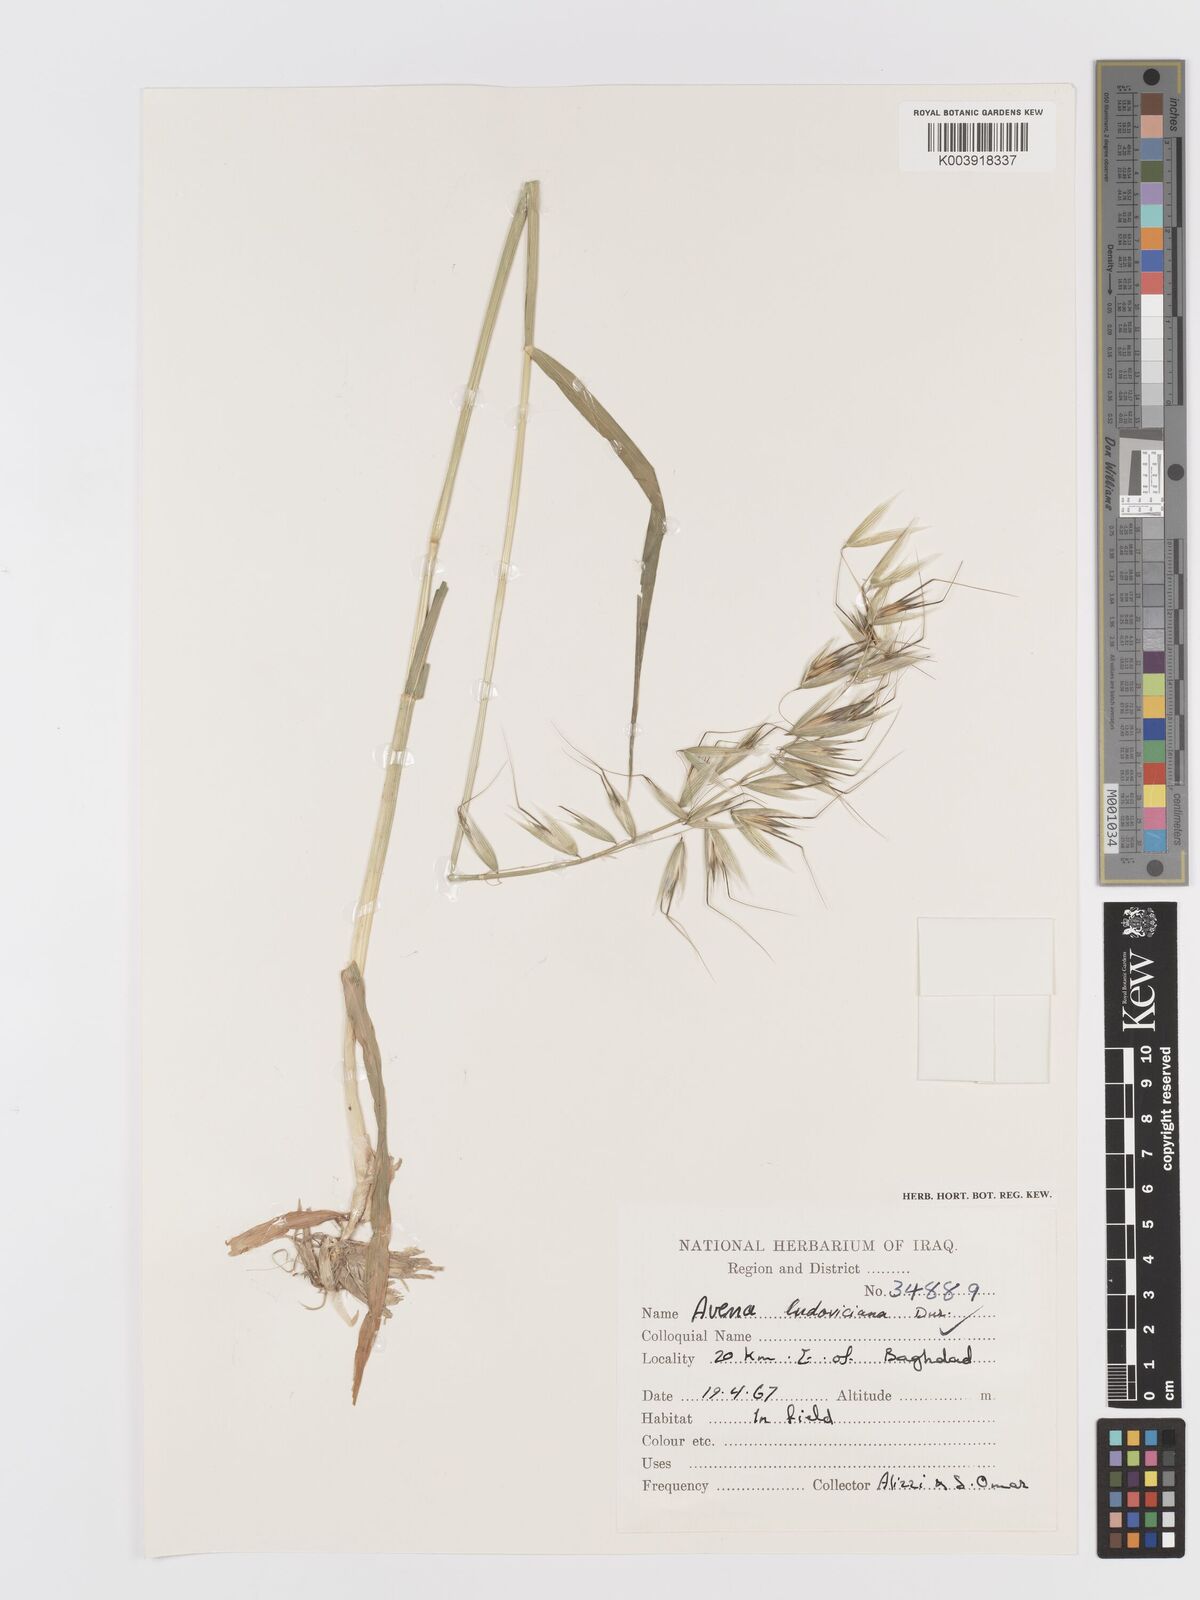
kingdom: Plantae
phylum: Tracheophyta
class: Liliopsida
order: Poales
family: Poaceae
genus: Avena
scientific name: Avena sterilis
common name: Animated oat
